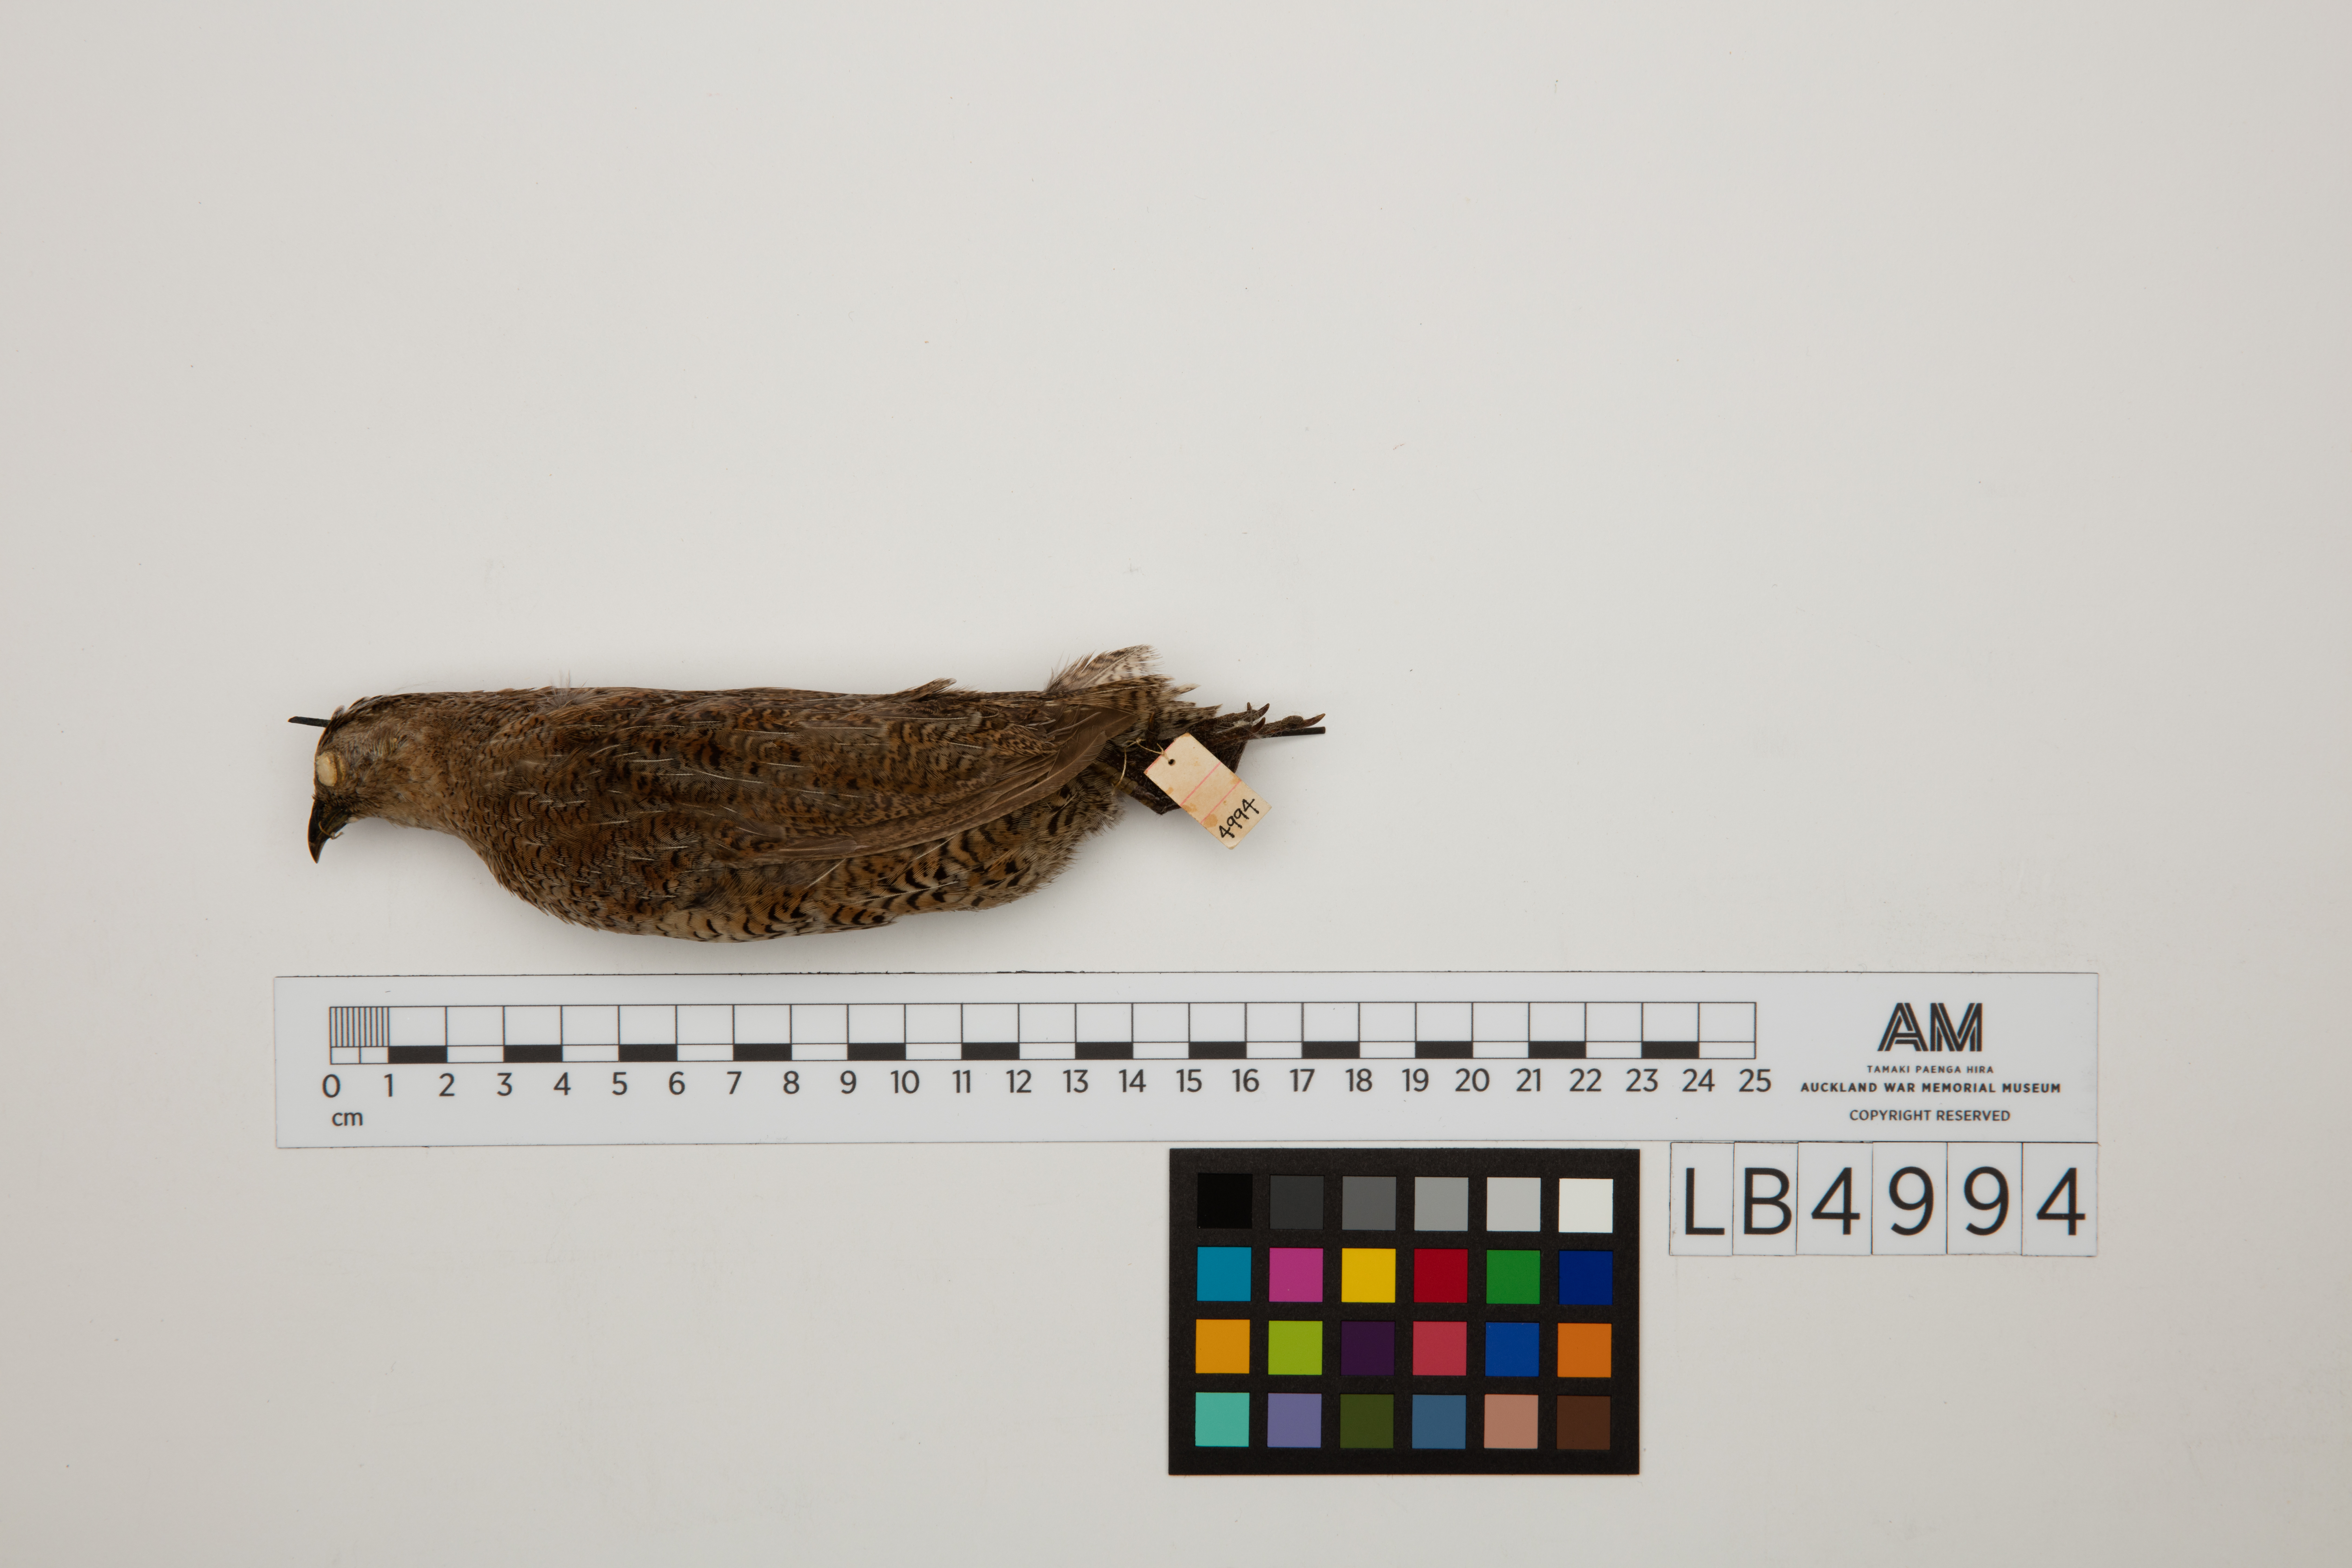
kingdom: Animalia
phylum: Chordata
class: Aves
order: Galliformes
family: Phasianidae
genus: Synoicus
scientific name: Synoicus ypsilophorus
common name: Brown quail
